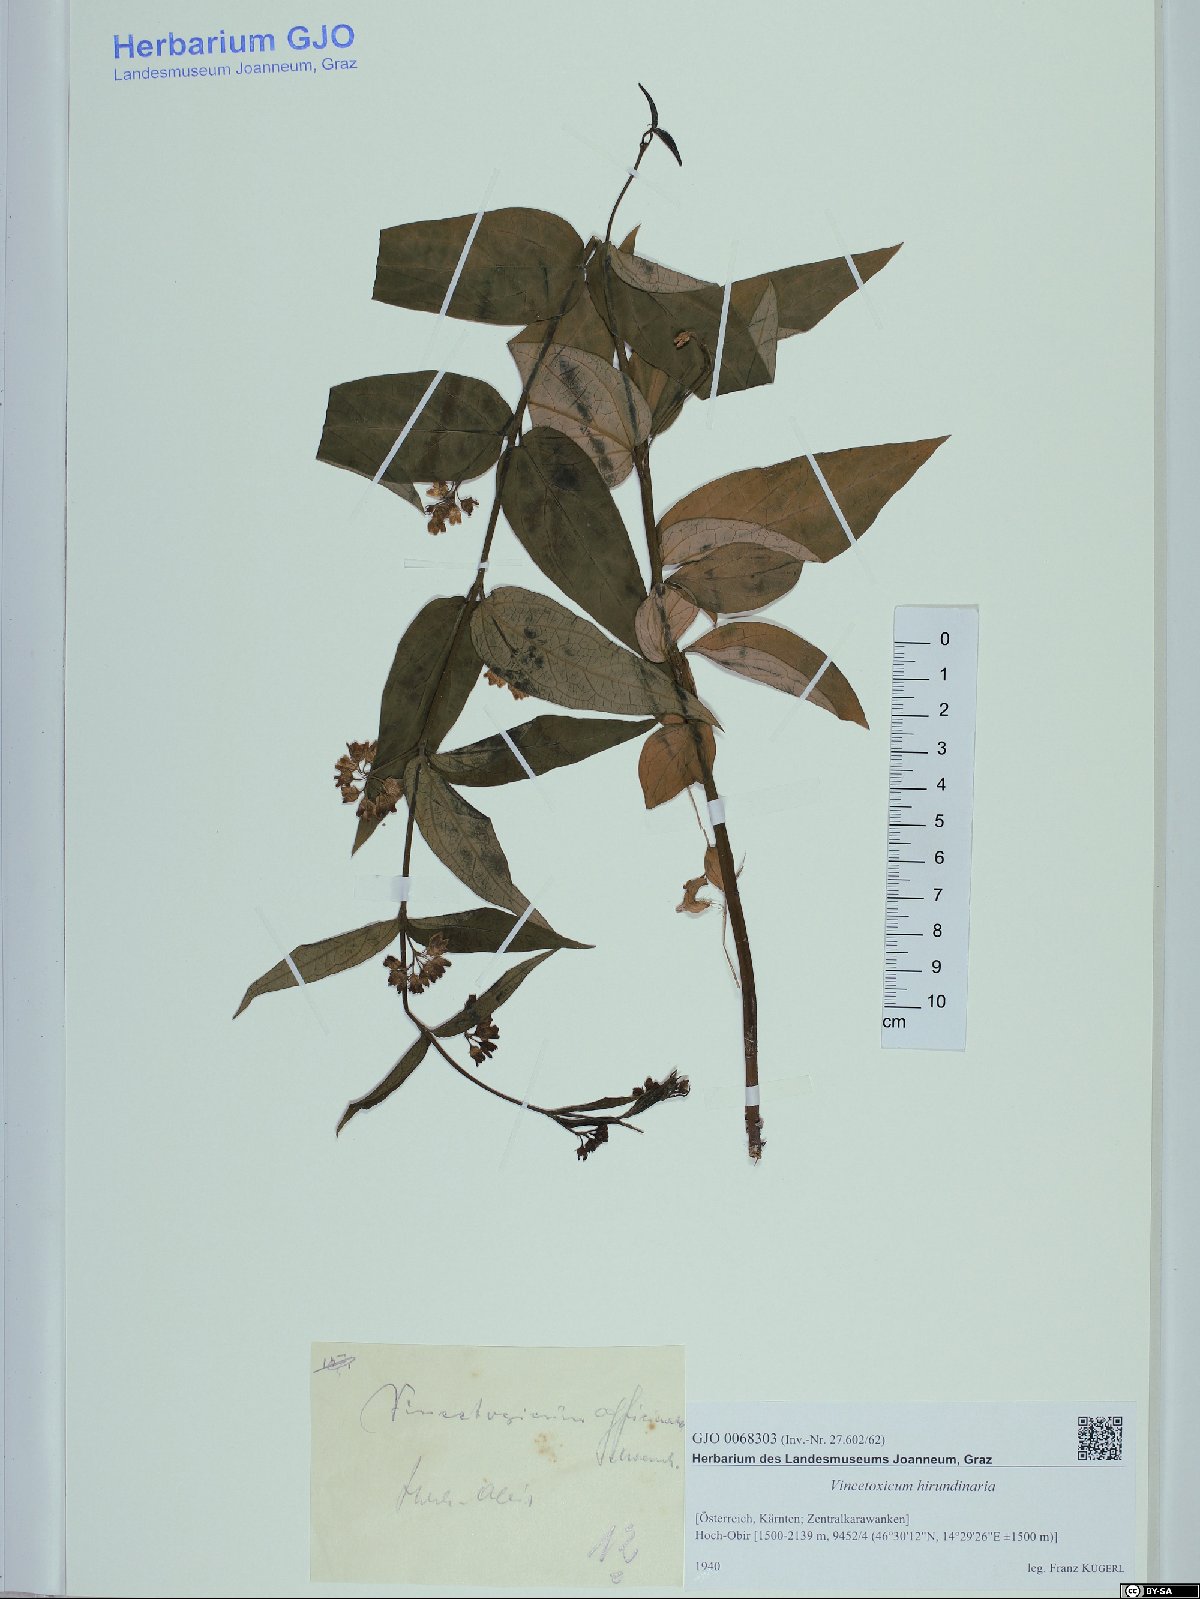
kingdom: Plantae
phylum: Tracheophyta
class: Magnoliopsida
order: Gentianales
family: Apocynaceae
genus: Vincetoxicum
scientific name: Vincetoxicum hirundinaria
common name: White swallowwort
